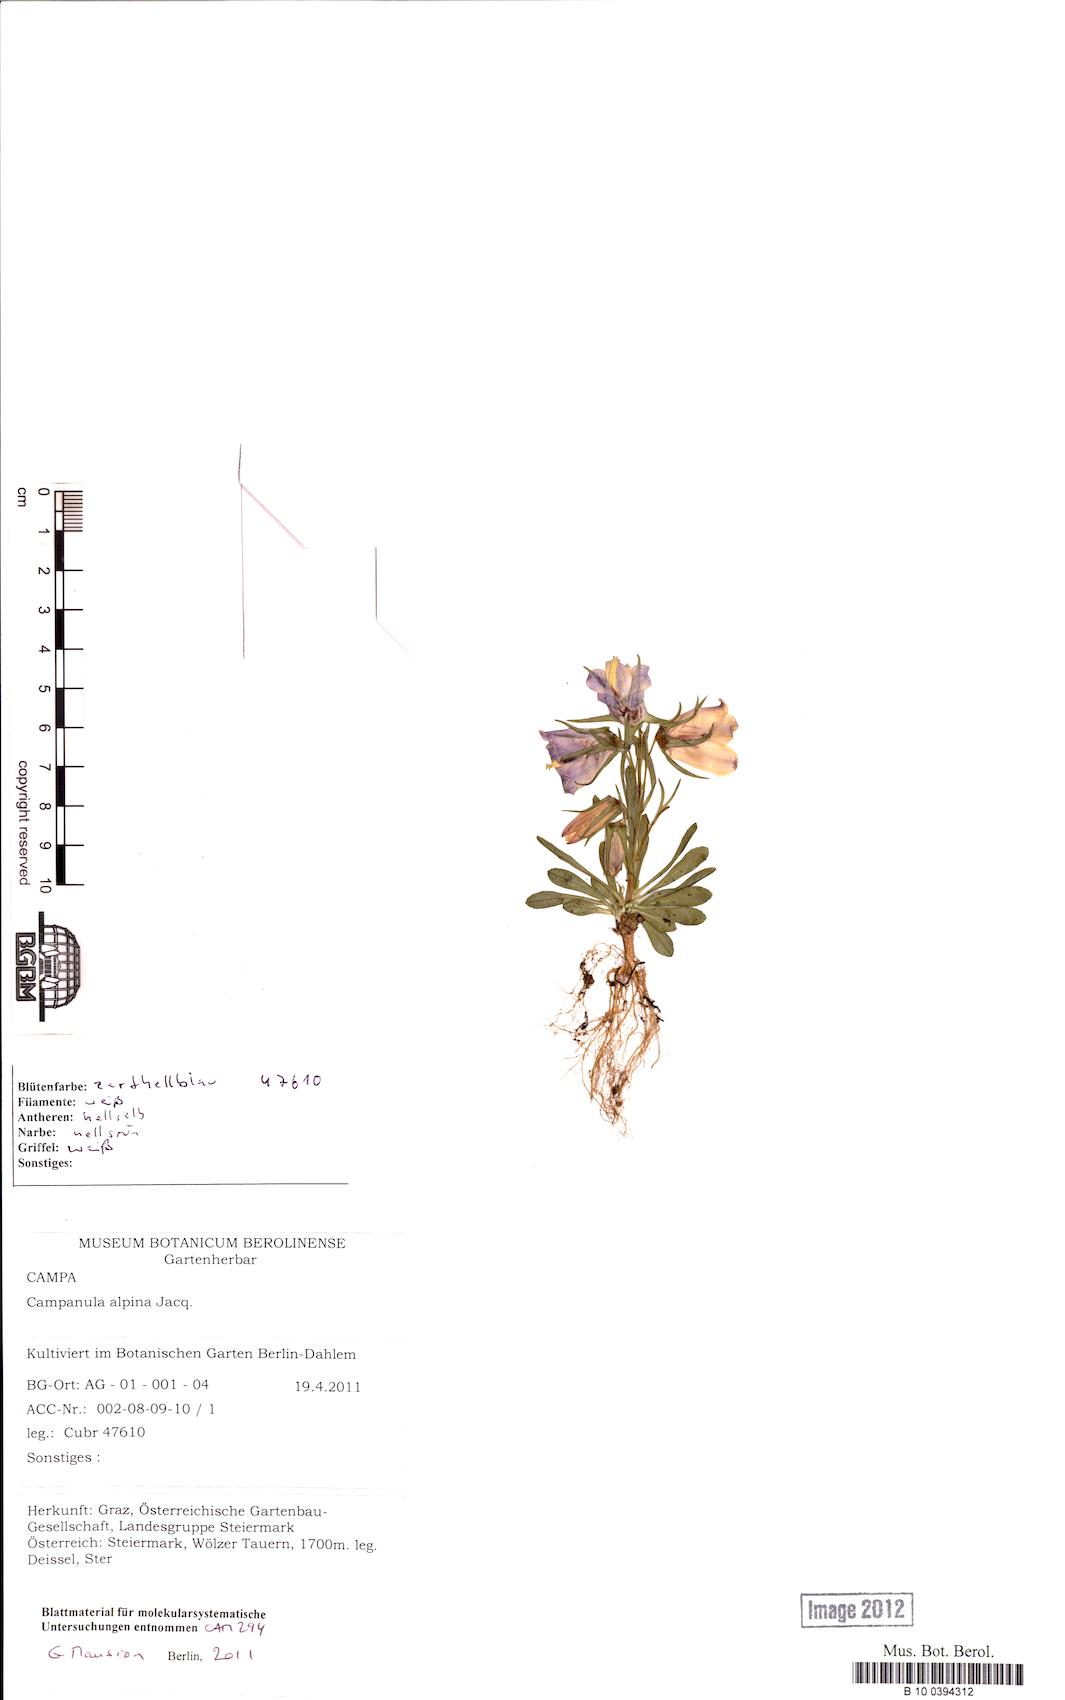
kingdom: Plantae
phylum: Tracheophyta
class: Magnoliopsida
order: Asterales
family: Campanulaceae
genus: Campanula
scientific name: Campanula alpina
